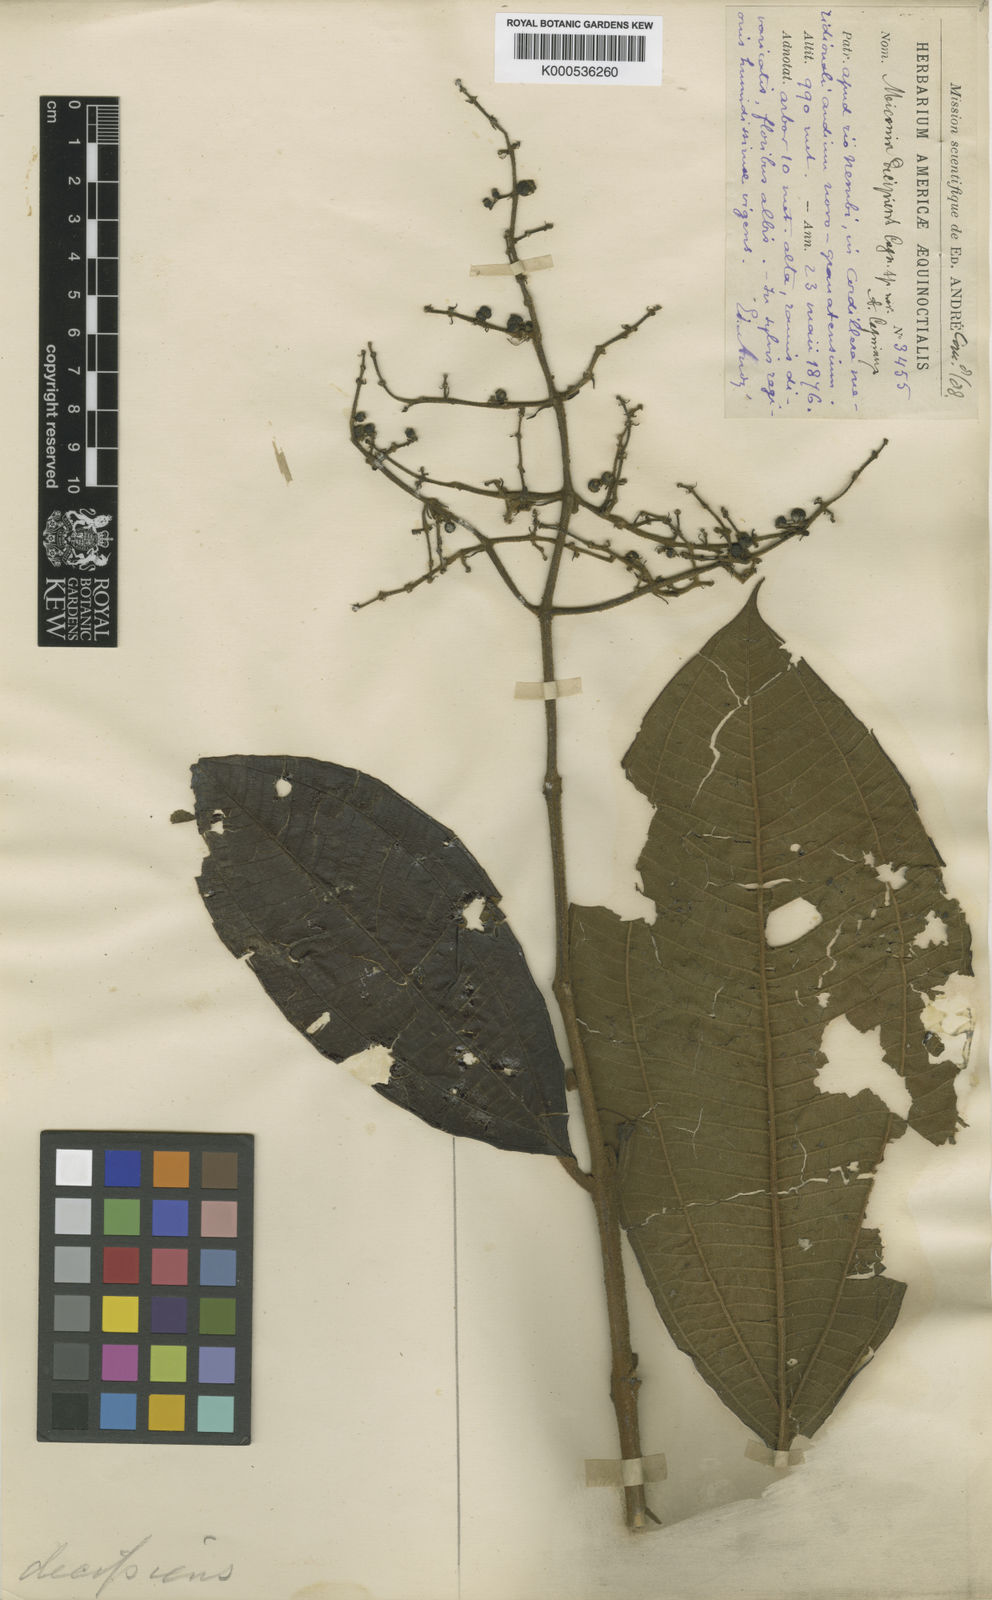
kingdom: Plantae
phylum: Tracheophyta
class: Magnoliopsida
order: Myrtales
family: Melastomataceae
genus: Miconia
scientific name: Miconia decipiens
